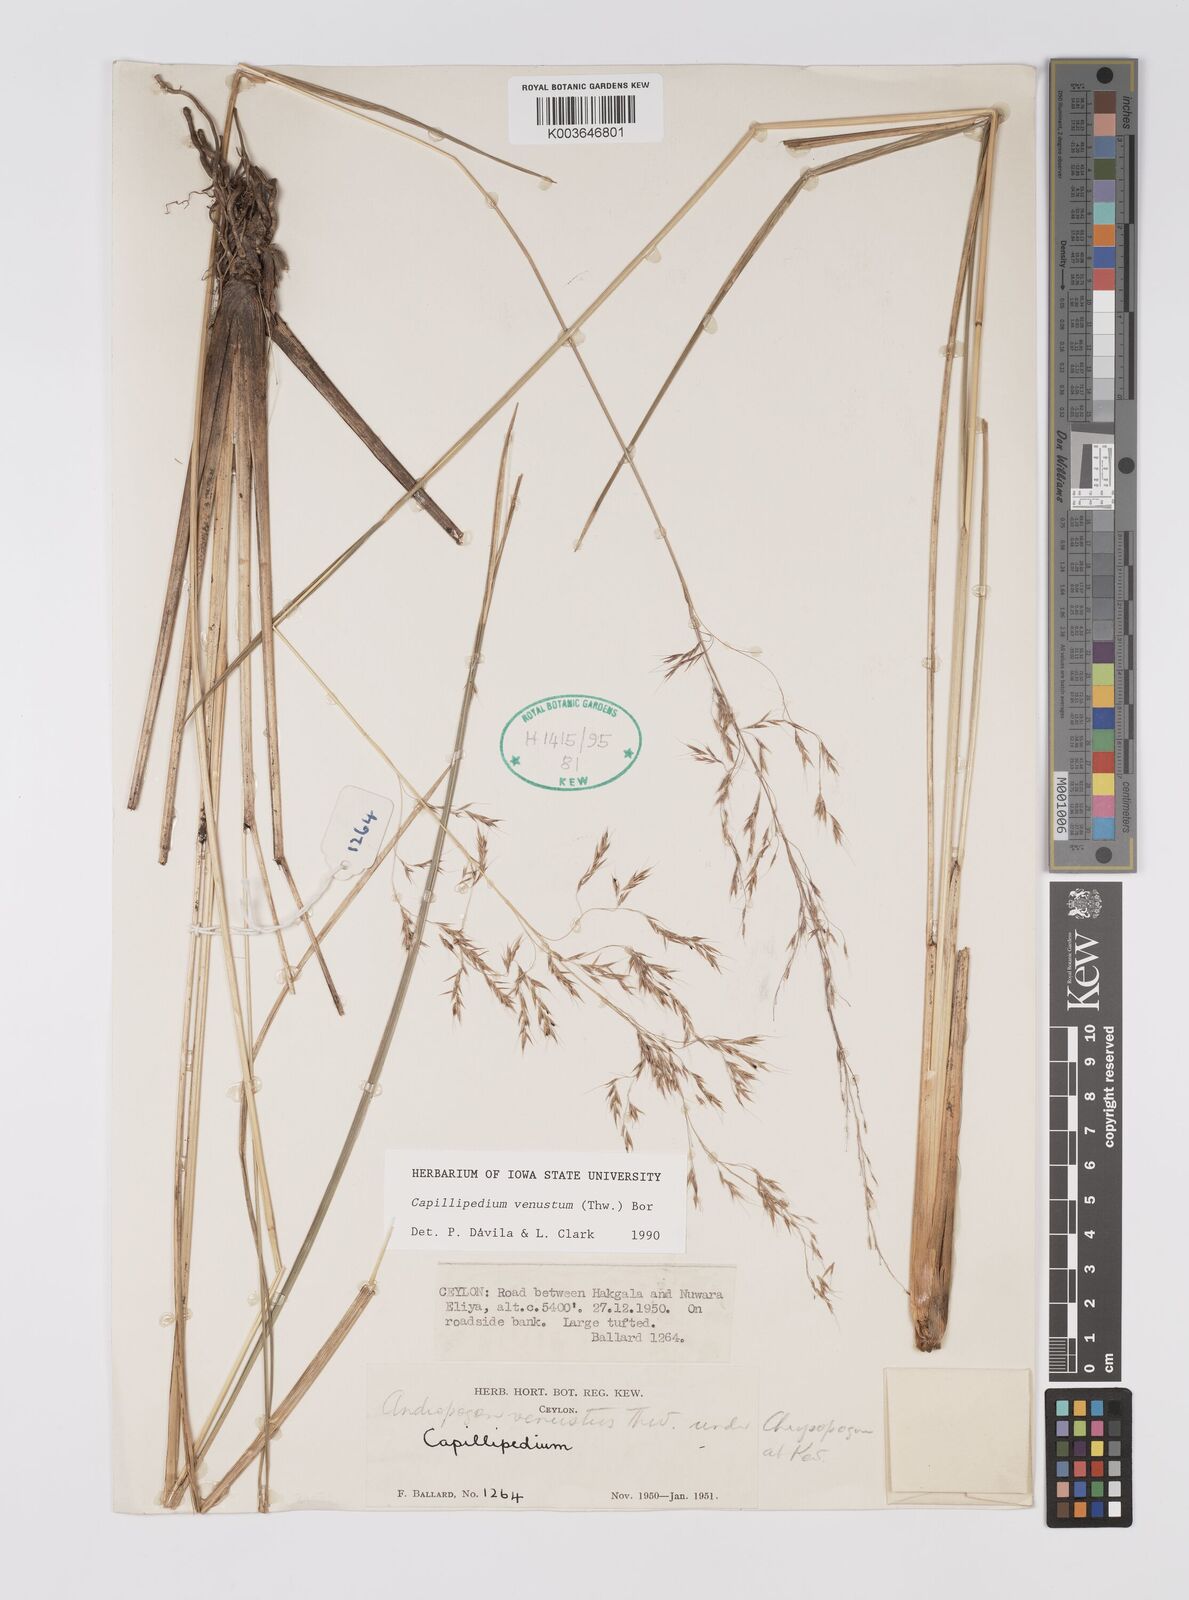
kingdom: Plantae
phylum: Tracheophyta
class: Liliopsida
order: Poales
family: Poaceae
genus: Hemisorghum
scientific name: Hemisorghum venustum
